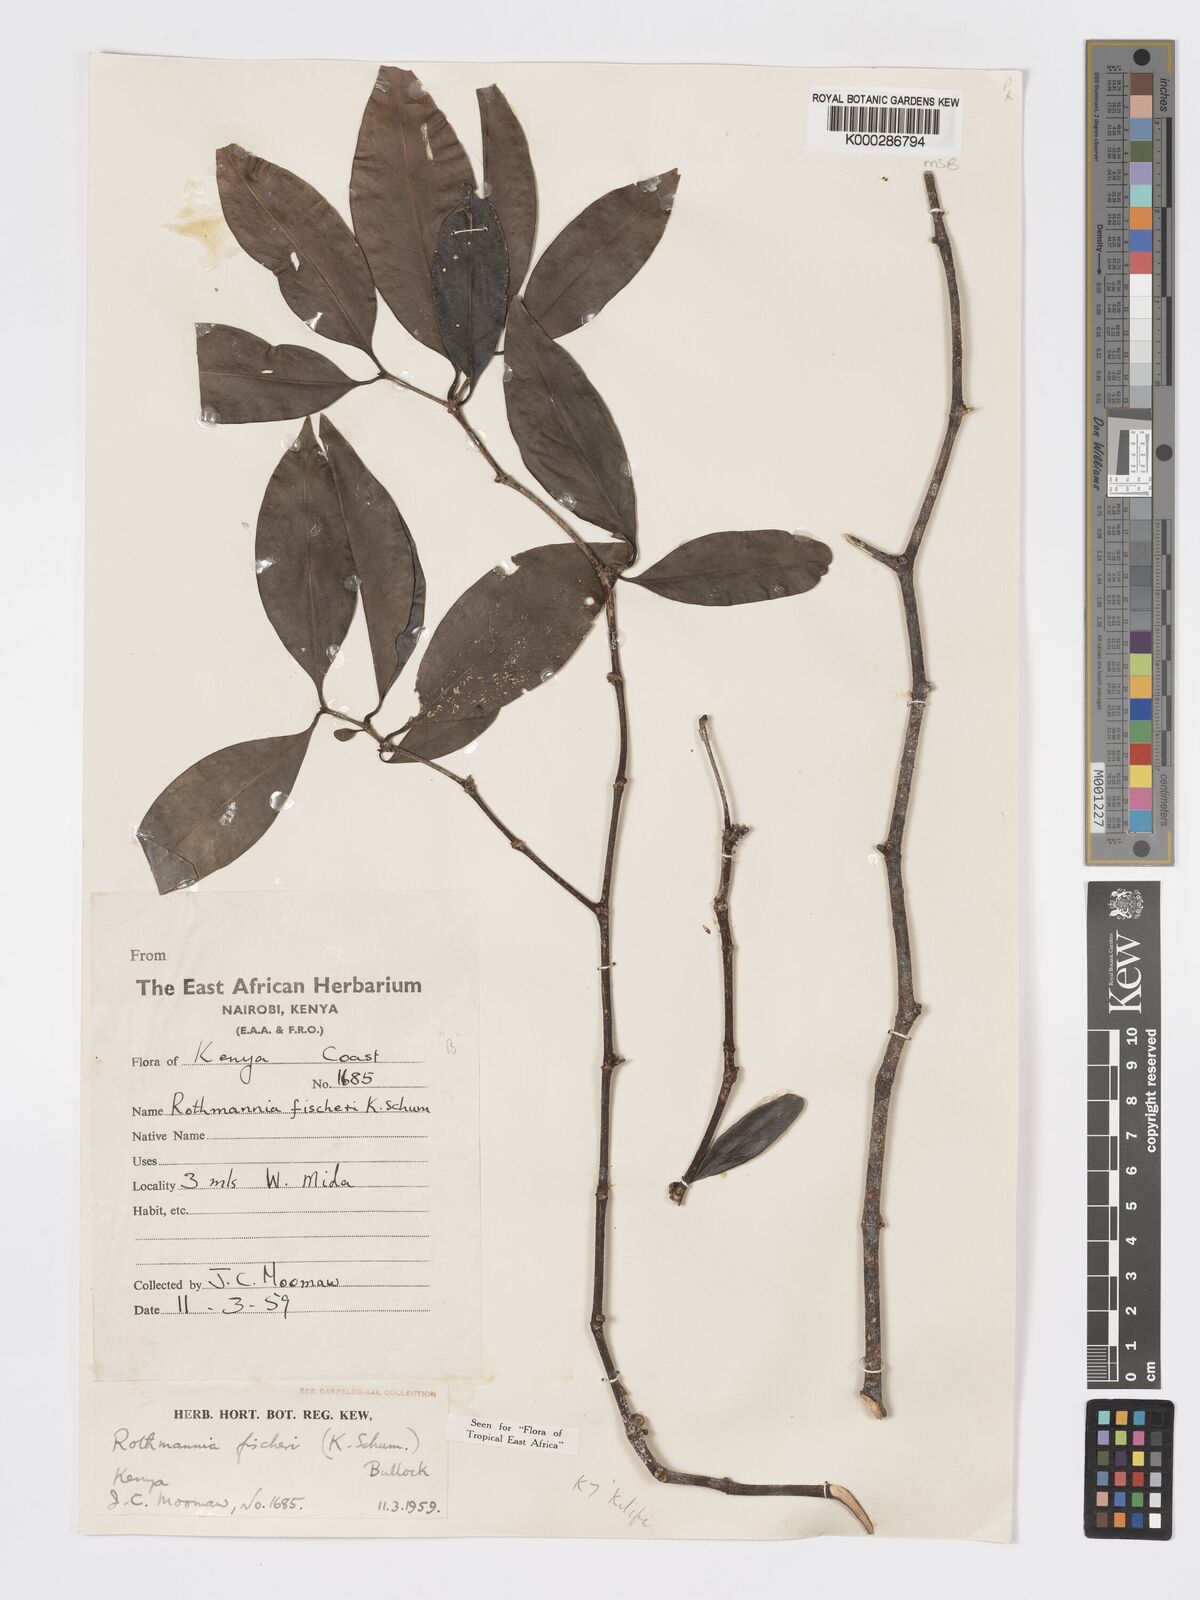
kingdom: Plantae
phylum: Tracheophyta
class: Magnoliopsida
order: Gentianales
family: Rubiaceae
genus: Rothmannia
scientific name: Rothmannia ravae
